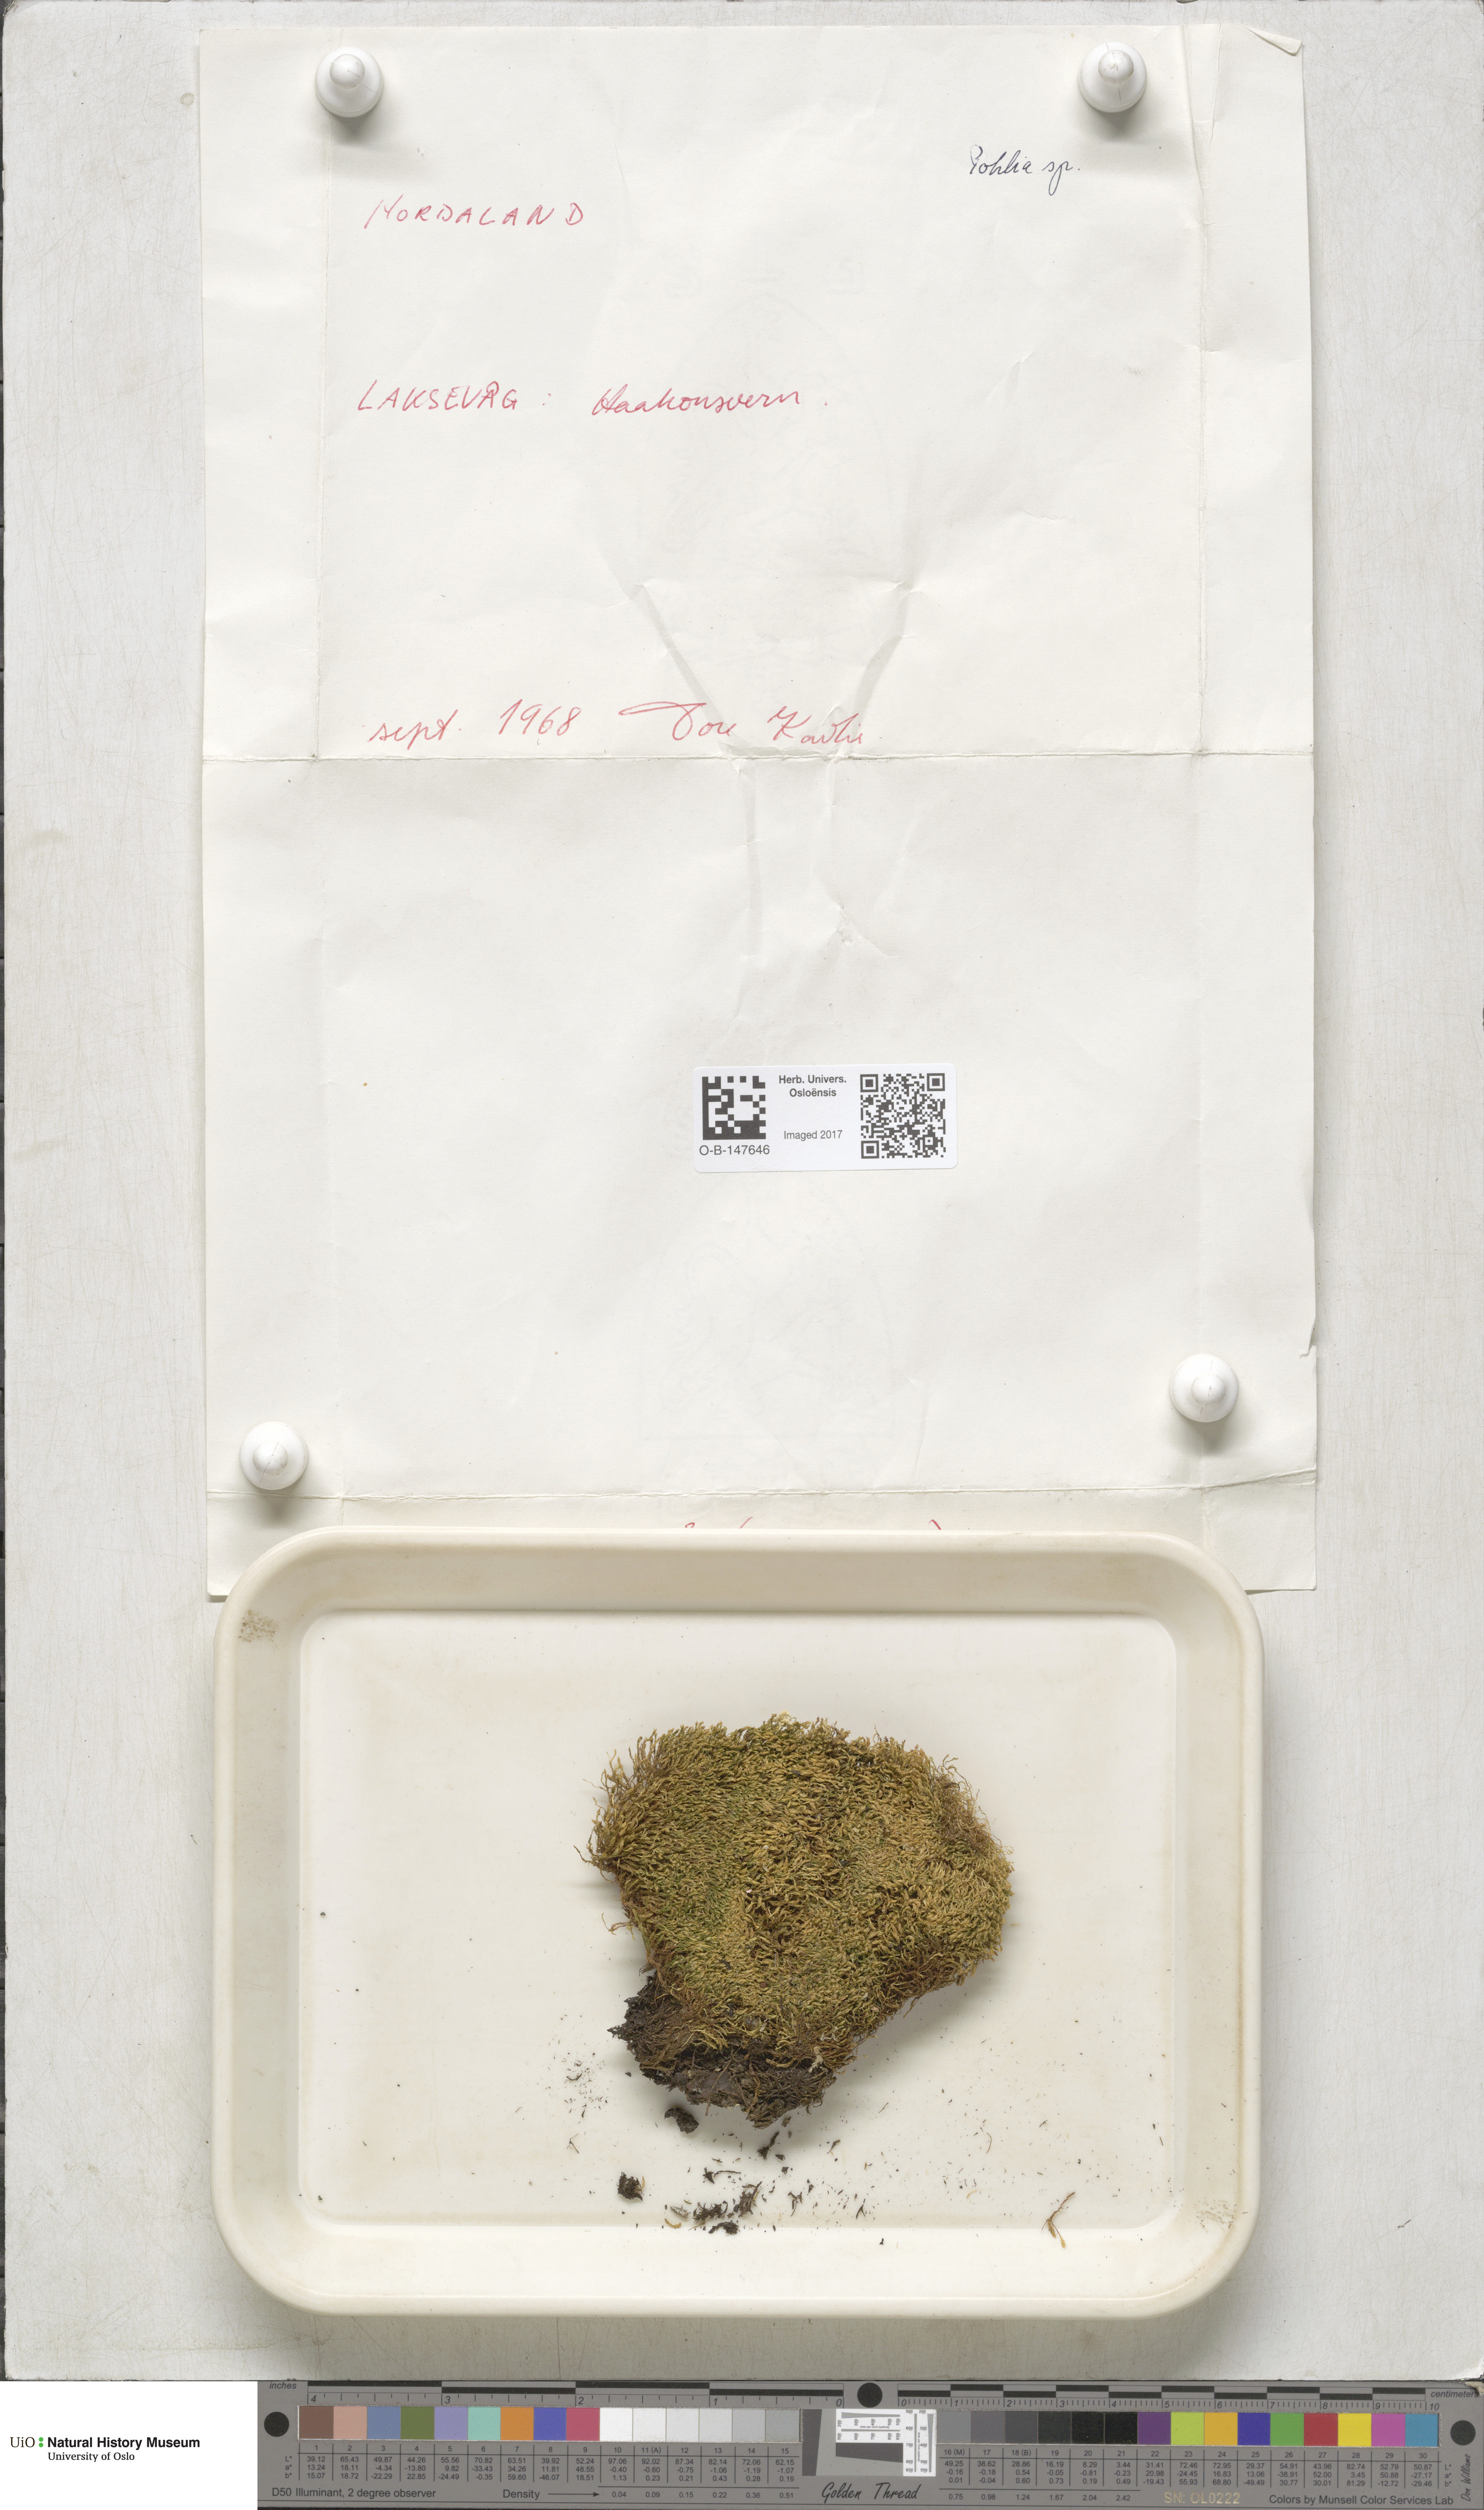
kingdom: Plantae
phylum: Bryophyta
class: Bryopsida
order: Bryales
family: Mniaceae
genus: Pohlia
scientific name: Pohlia
